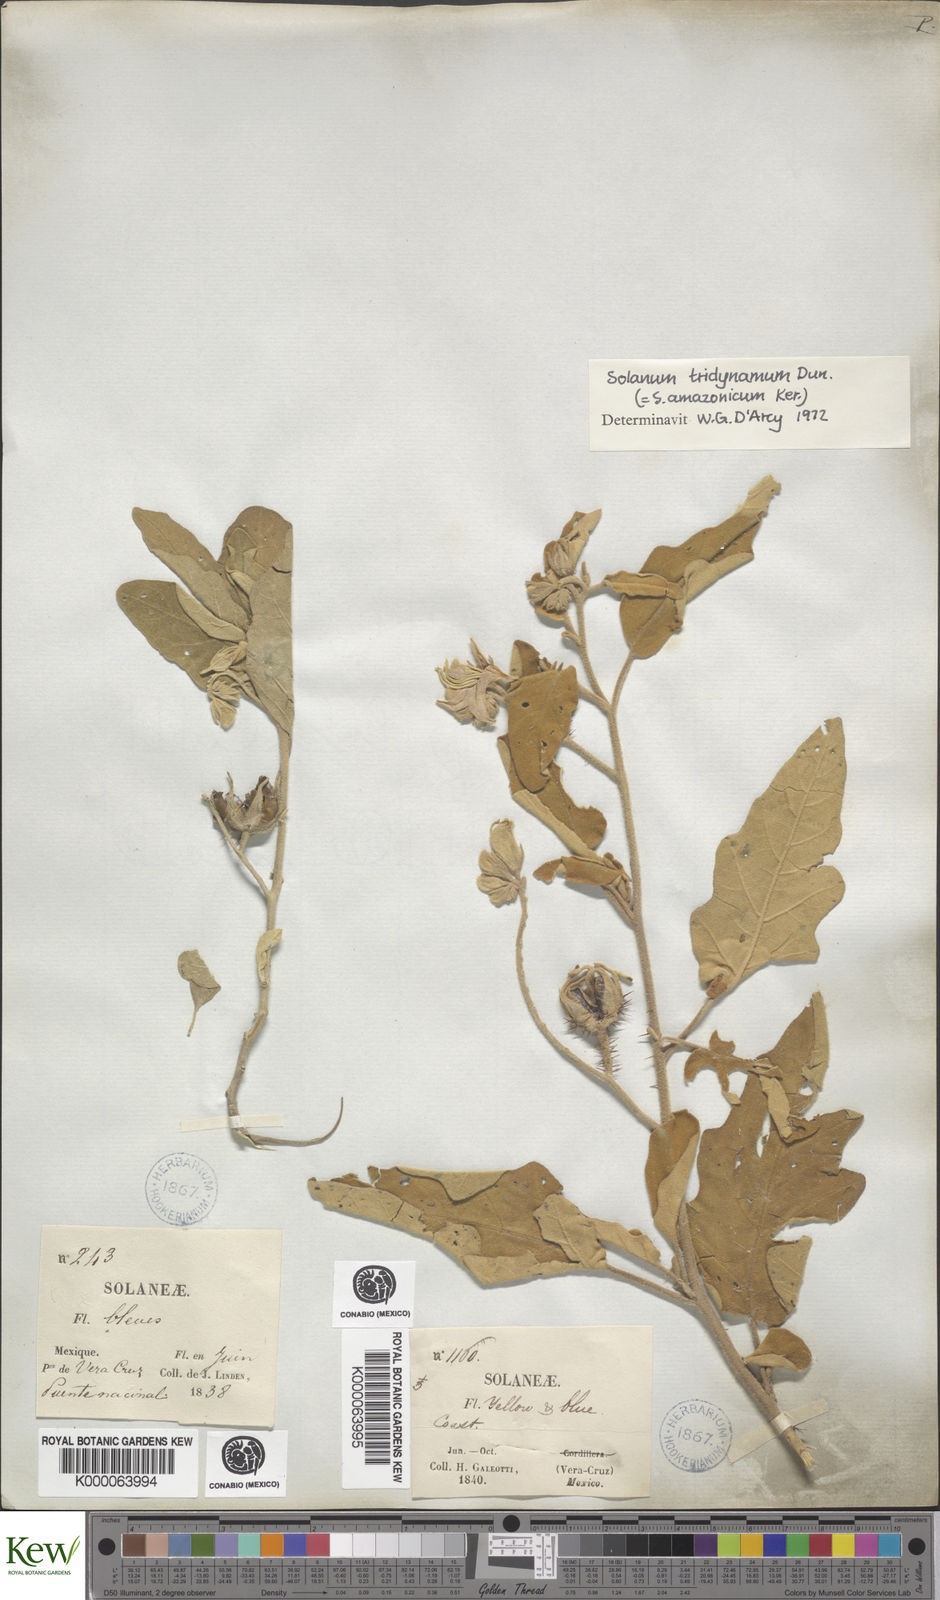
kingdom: Plantae
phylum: Tracheophyta
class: Magnoliopsida
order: Solanales
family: Solanaceae
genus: Solanum
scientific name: Solanum houstonii
